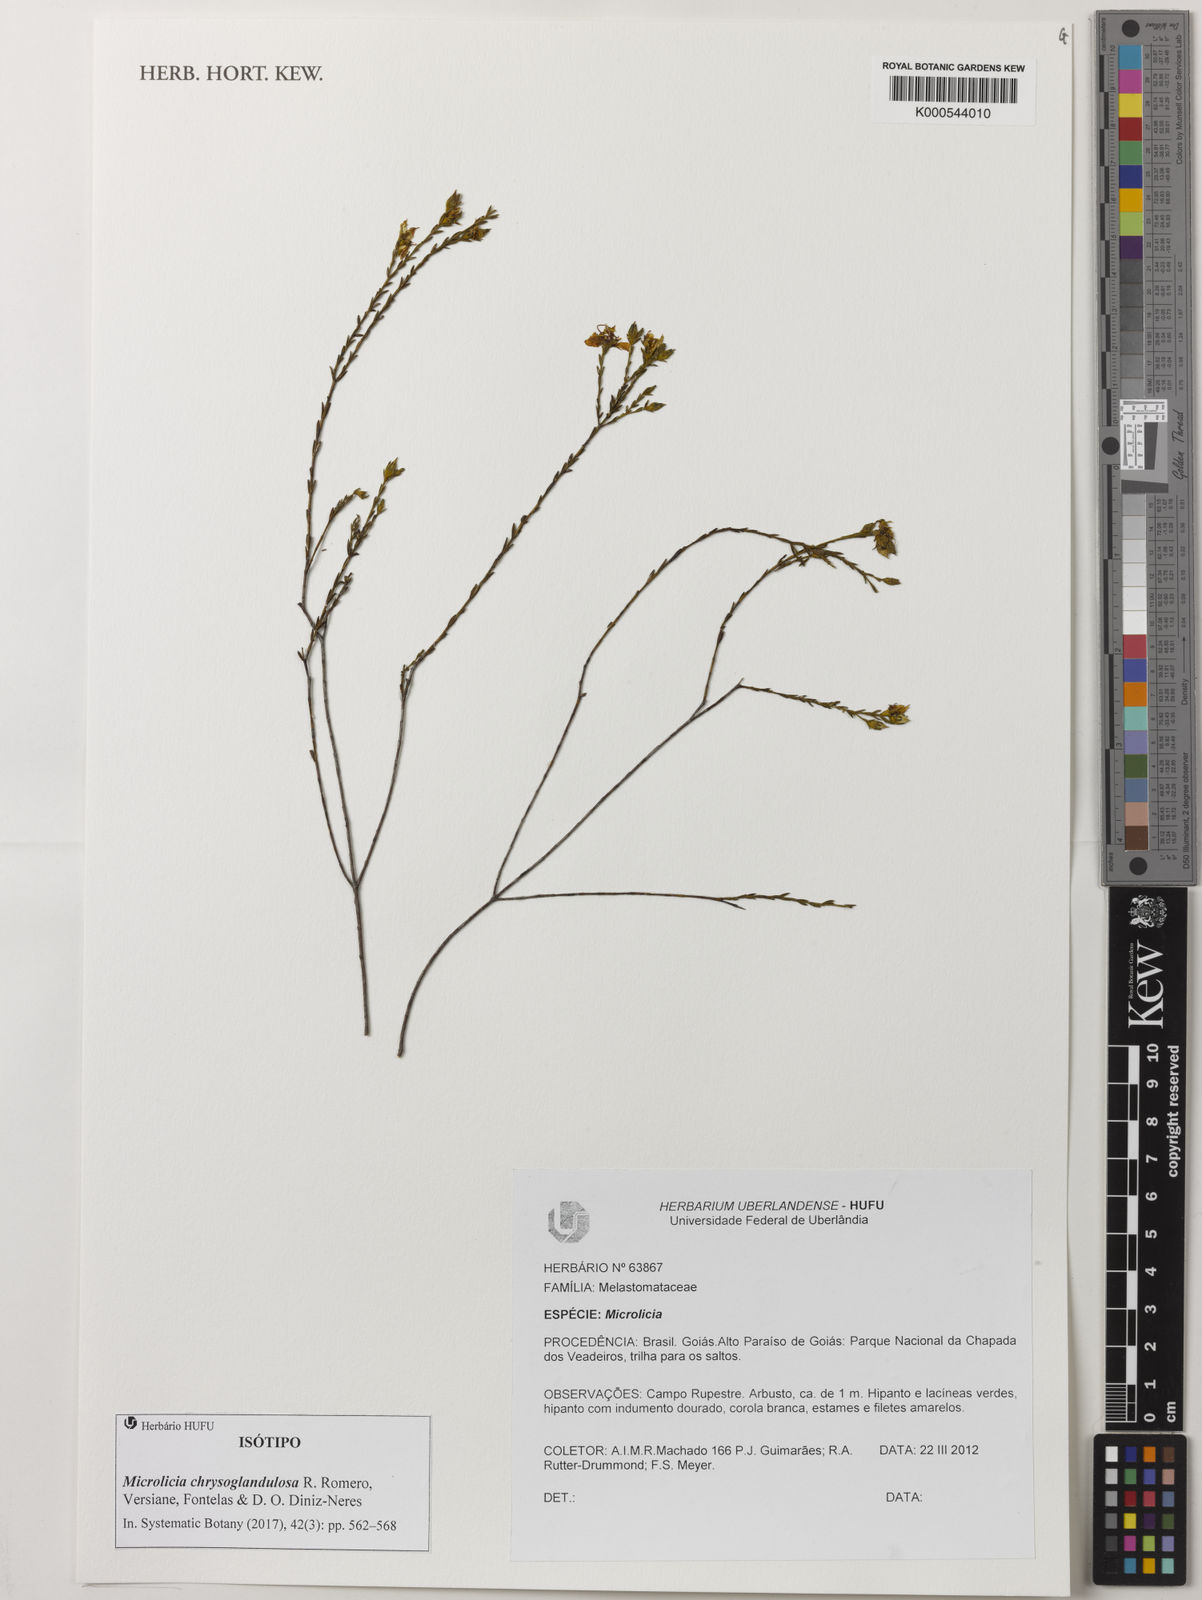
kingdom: Plantae
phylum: Tracheophyta
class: Magnoliopsida
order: Myrtales
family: Melastomataceae
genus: Microlicia
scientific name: Microlicia chrysoglandulosa
